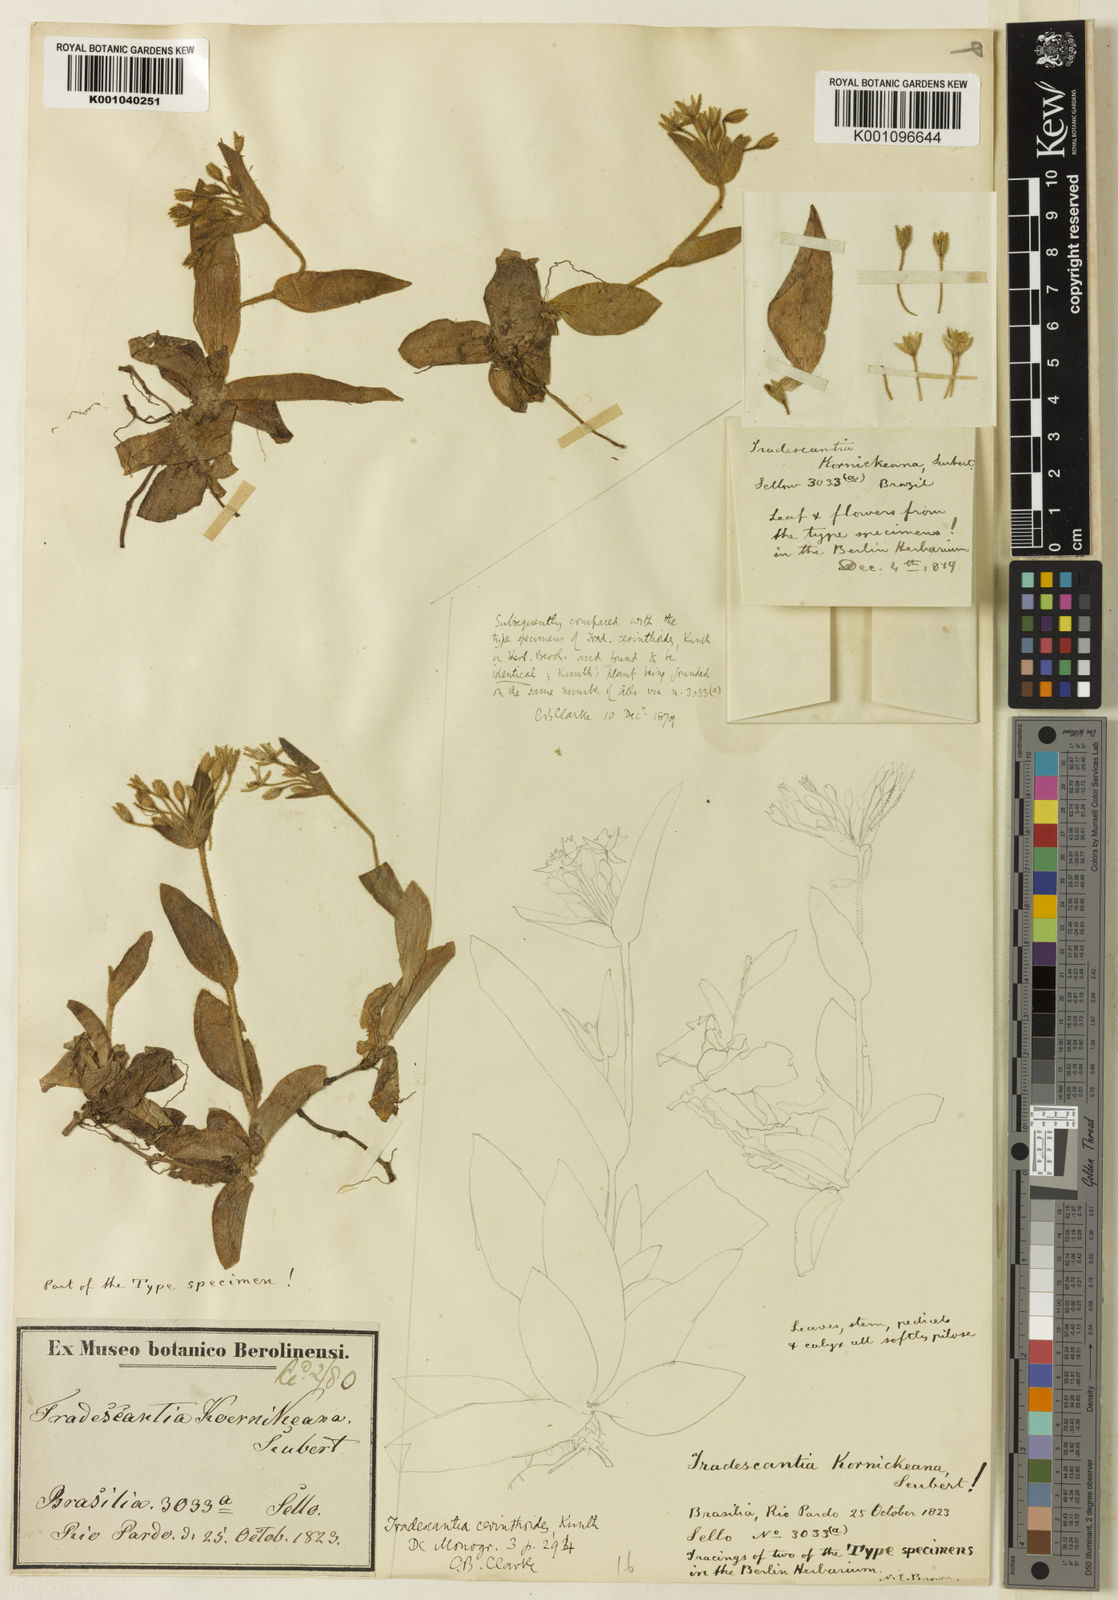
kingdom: Plantae
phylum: Tracheophyta
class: Liliopsida
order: Commelinales
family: Commelinaceae
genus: Tradescantia
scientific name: Tradescantia cerinthoides
